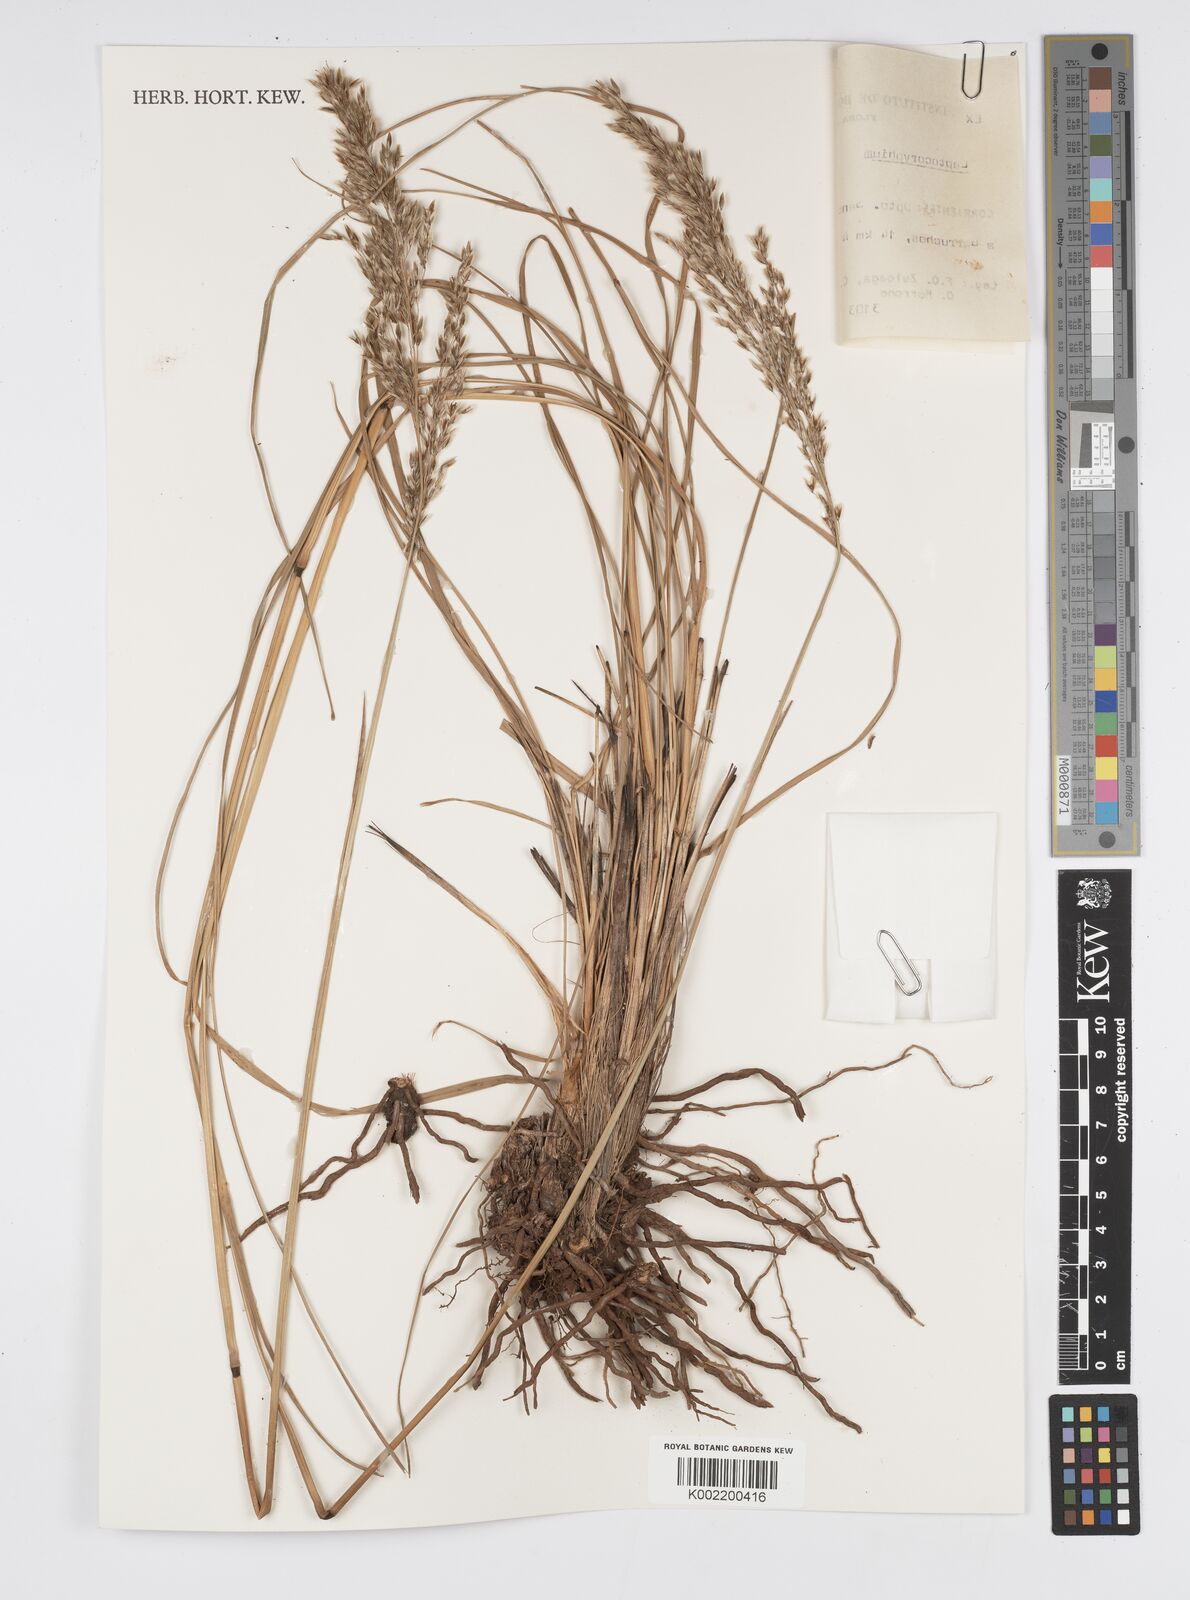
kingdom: Plantae
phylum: Tracheophyta
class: Liliopsida
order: Poales
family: Poaceae
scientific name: Poaceae
